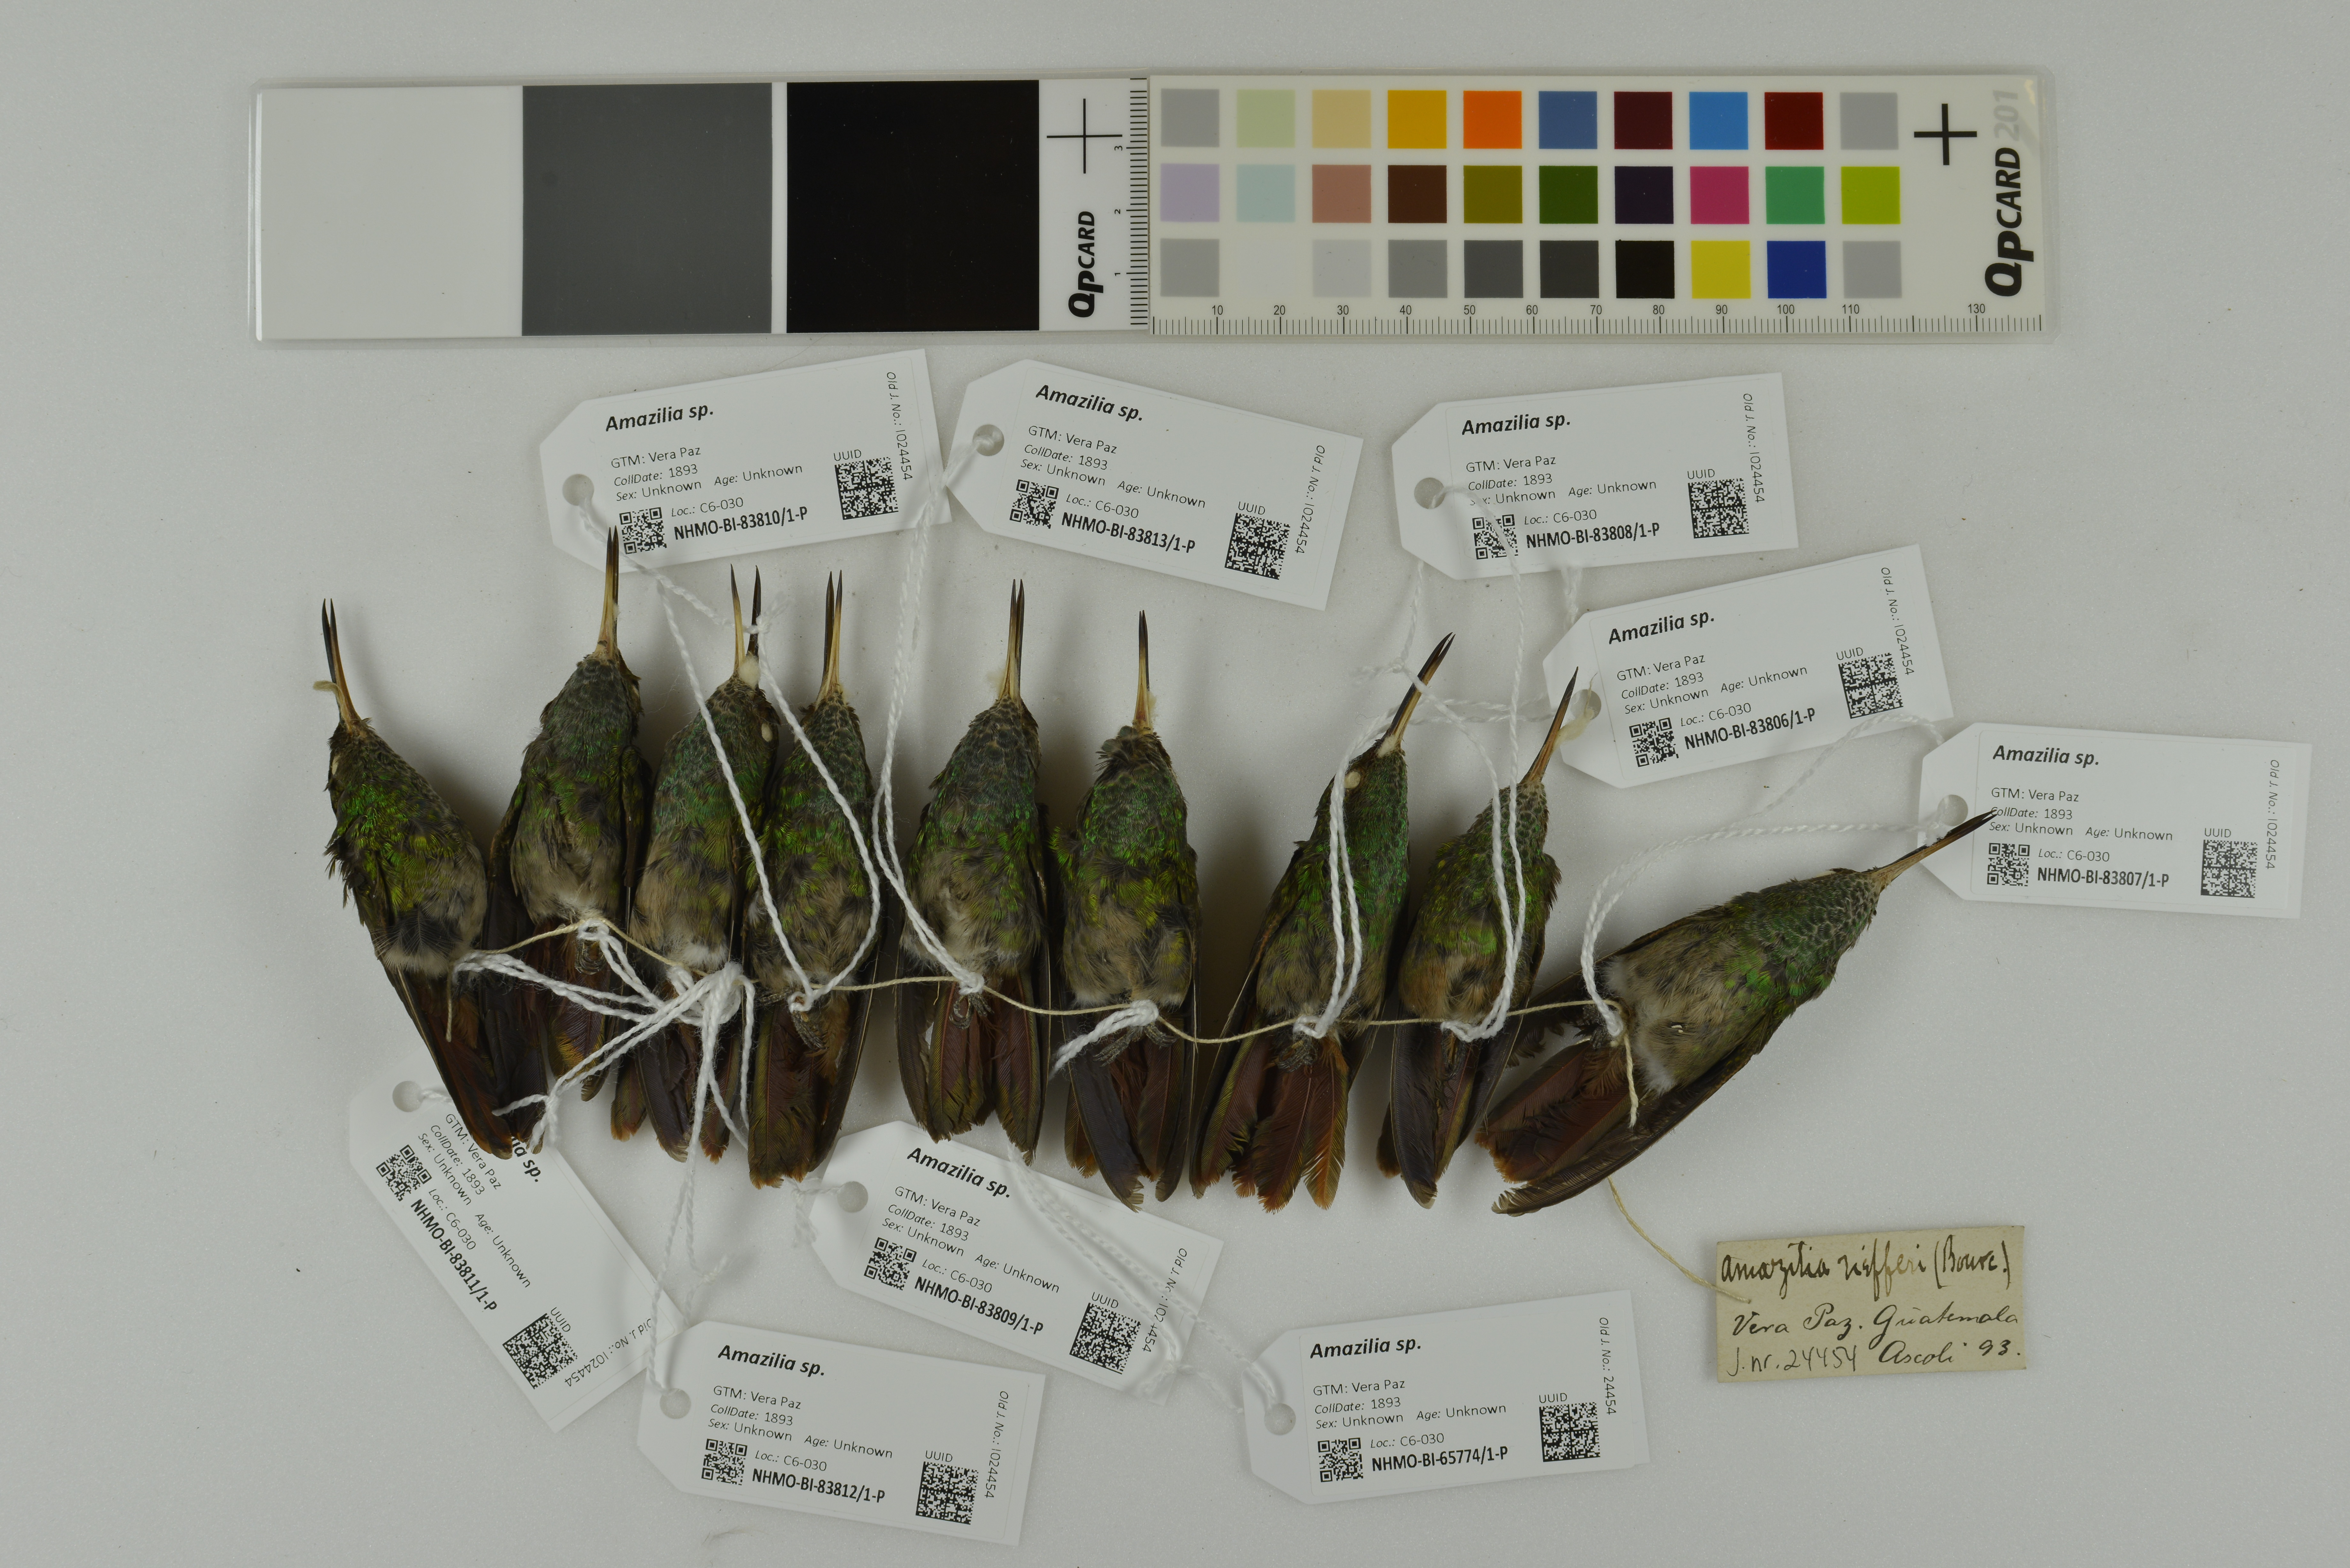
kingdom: Animalia
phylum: Chordata
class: Aves
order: Apodiformes
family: Trochilidae
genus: Amazilia
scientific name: Amazilia
